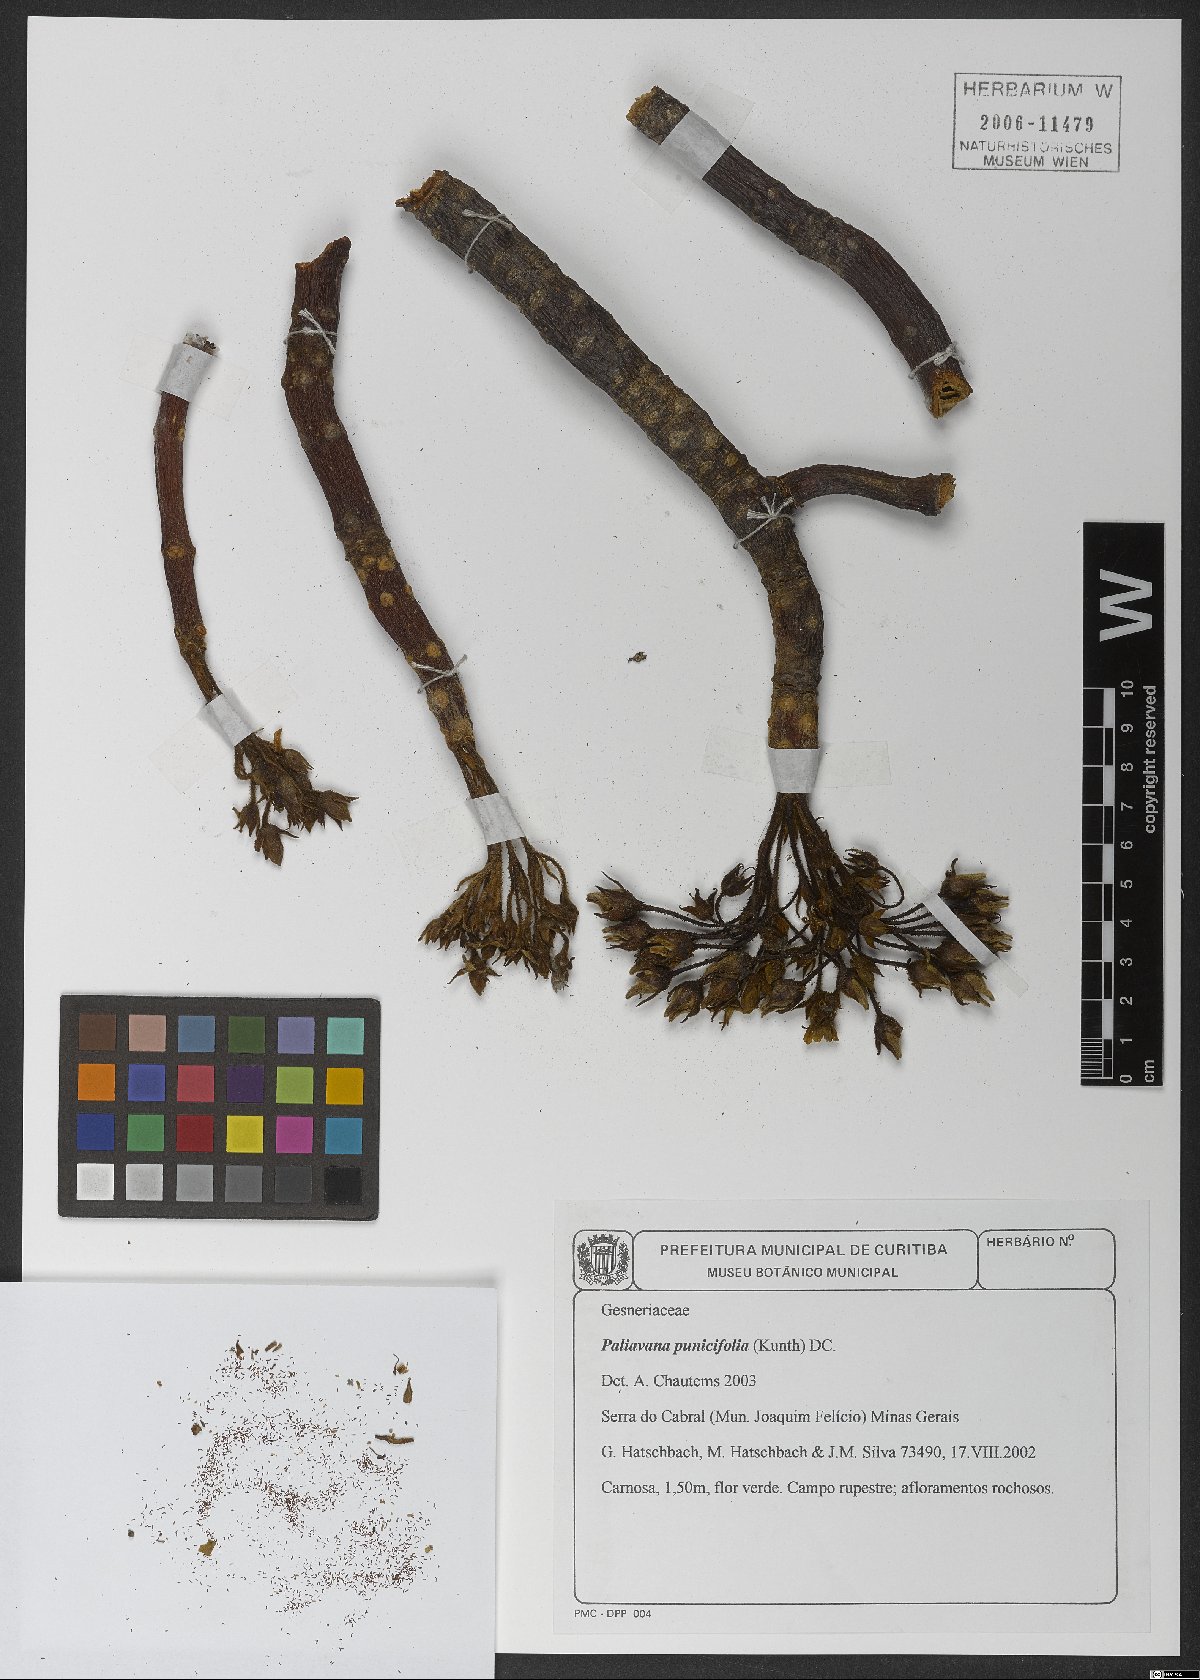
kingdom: Plantae
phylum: Tracheophyta
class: Magnoliopsida
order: Lamiales
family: Gesneriaceae
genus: Paliavana
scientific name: Paliavana
